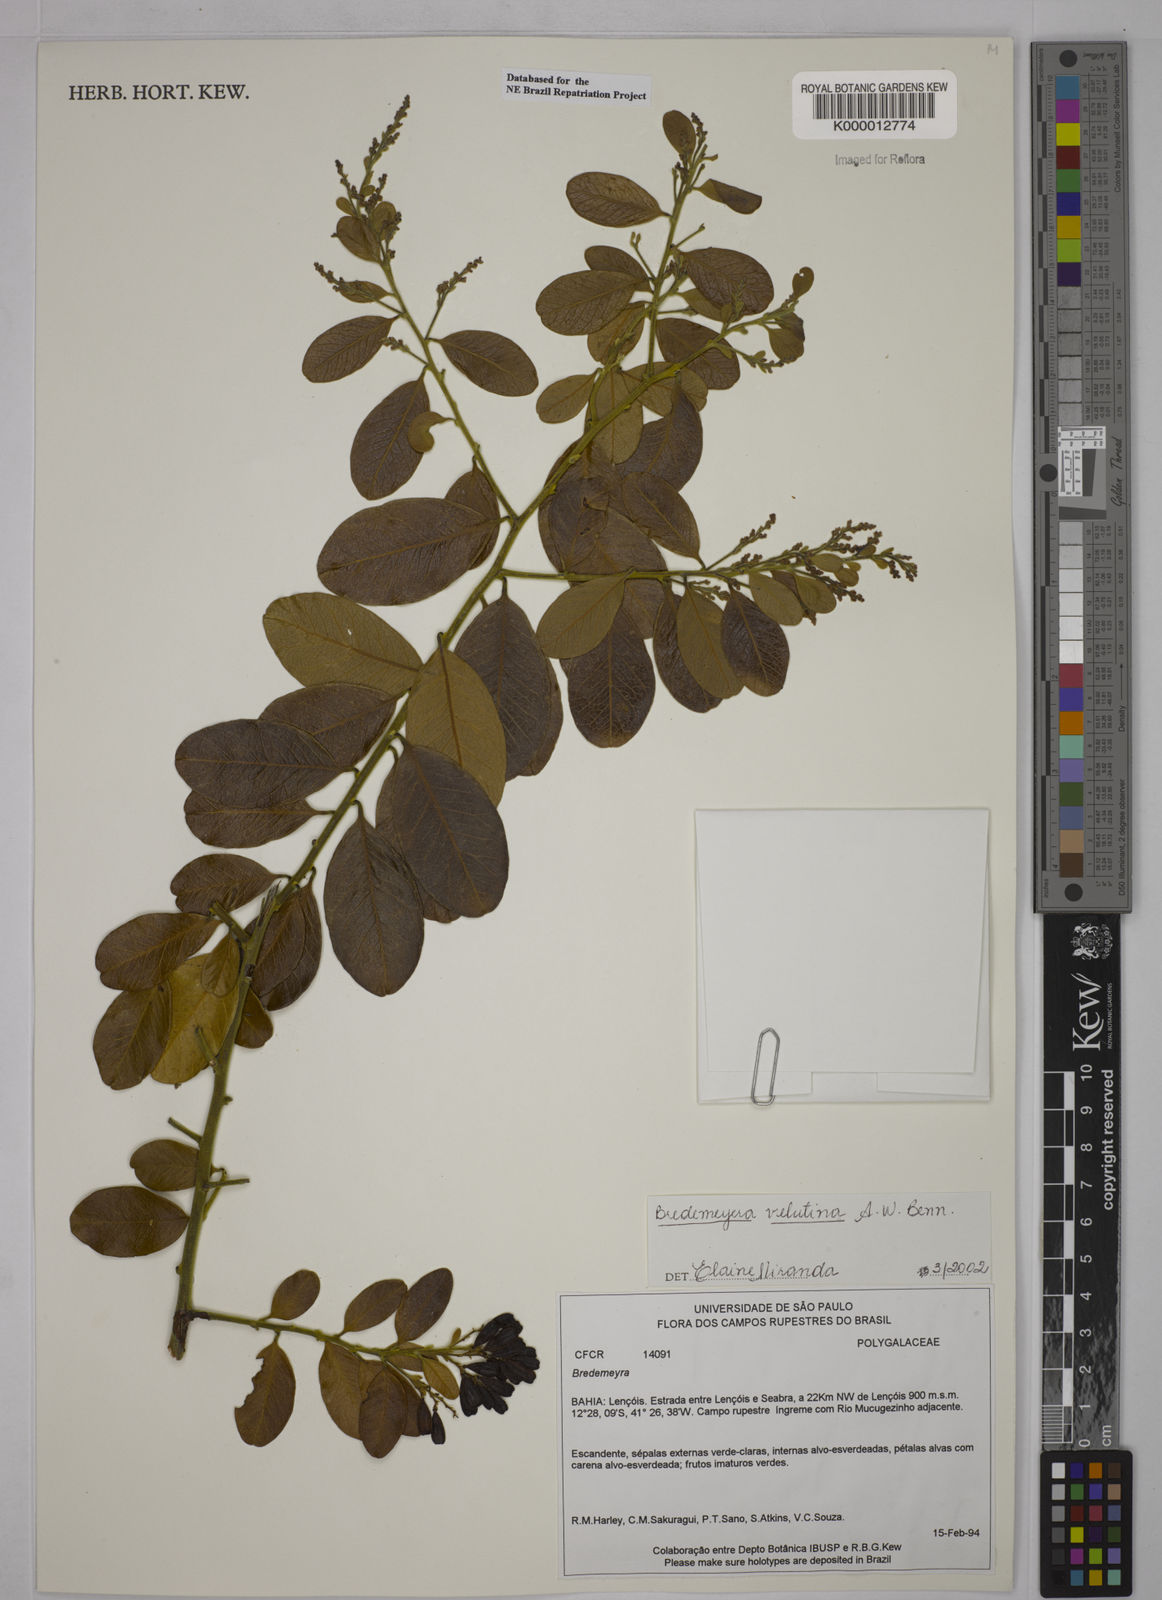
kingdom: Plantae
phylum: Tracheophyta
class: Magnoliopsida
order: Fabales
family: Polygalaceae
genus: Bredemeyera
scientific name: Bredemeyera hebeclada
